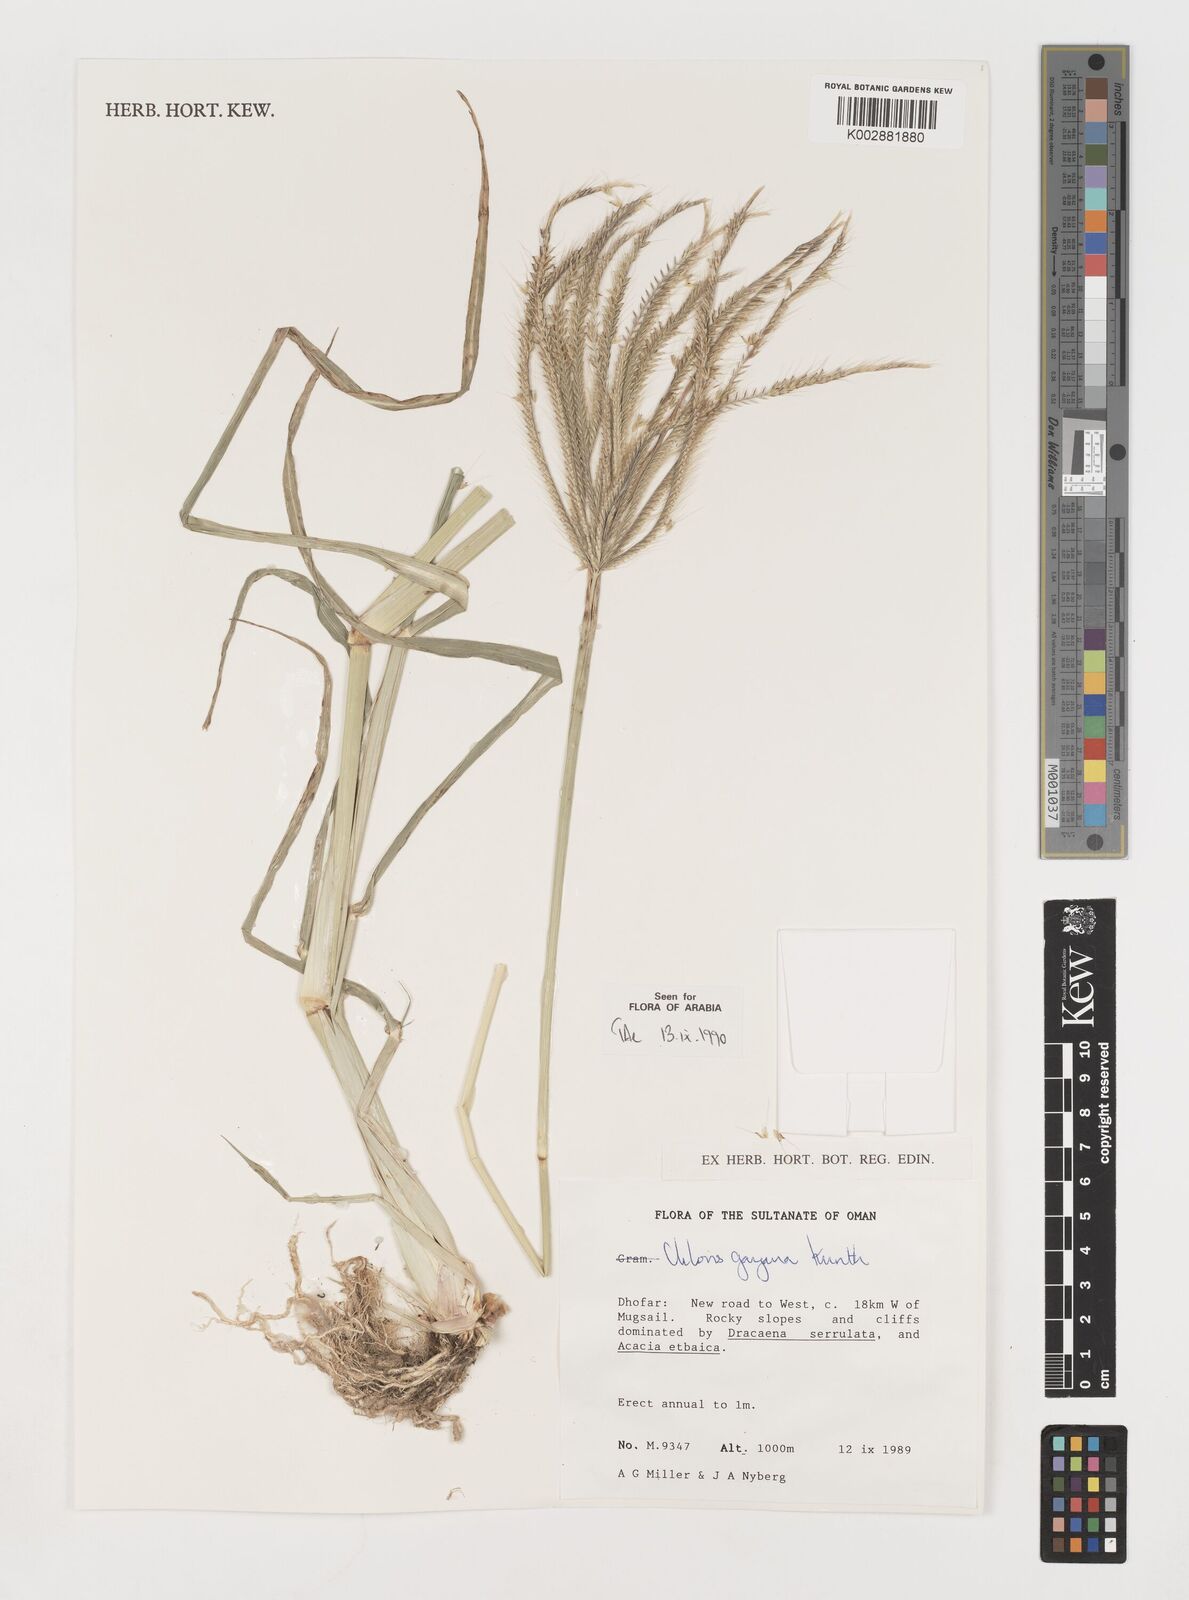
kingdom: Plantae
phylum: Tracheophyta
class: Liliopsida
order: Poales
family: Poaceae
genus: Chloris
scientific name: Chloris gayana
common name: Rhodes grass
